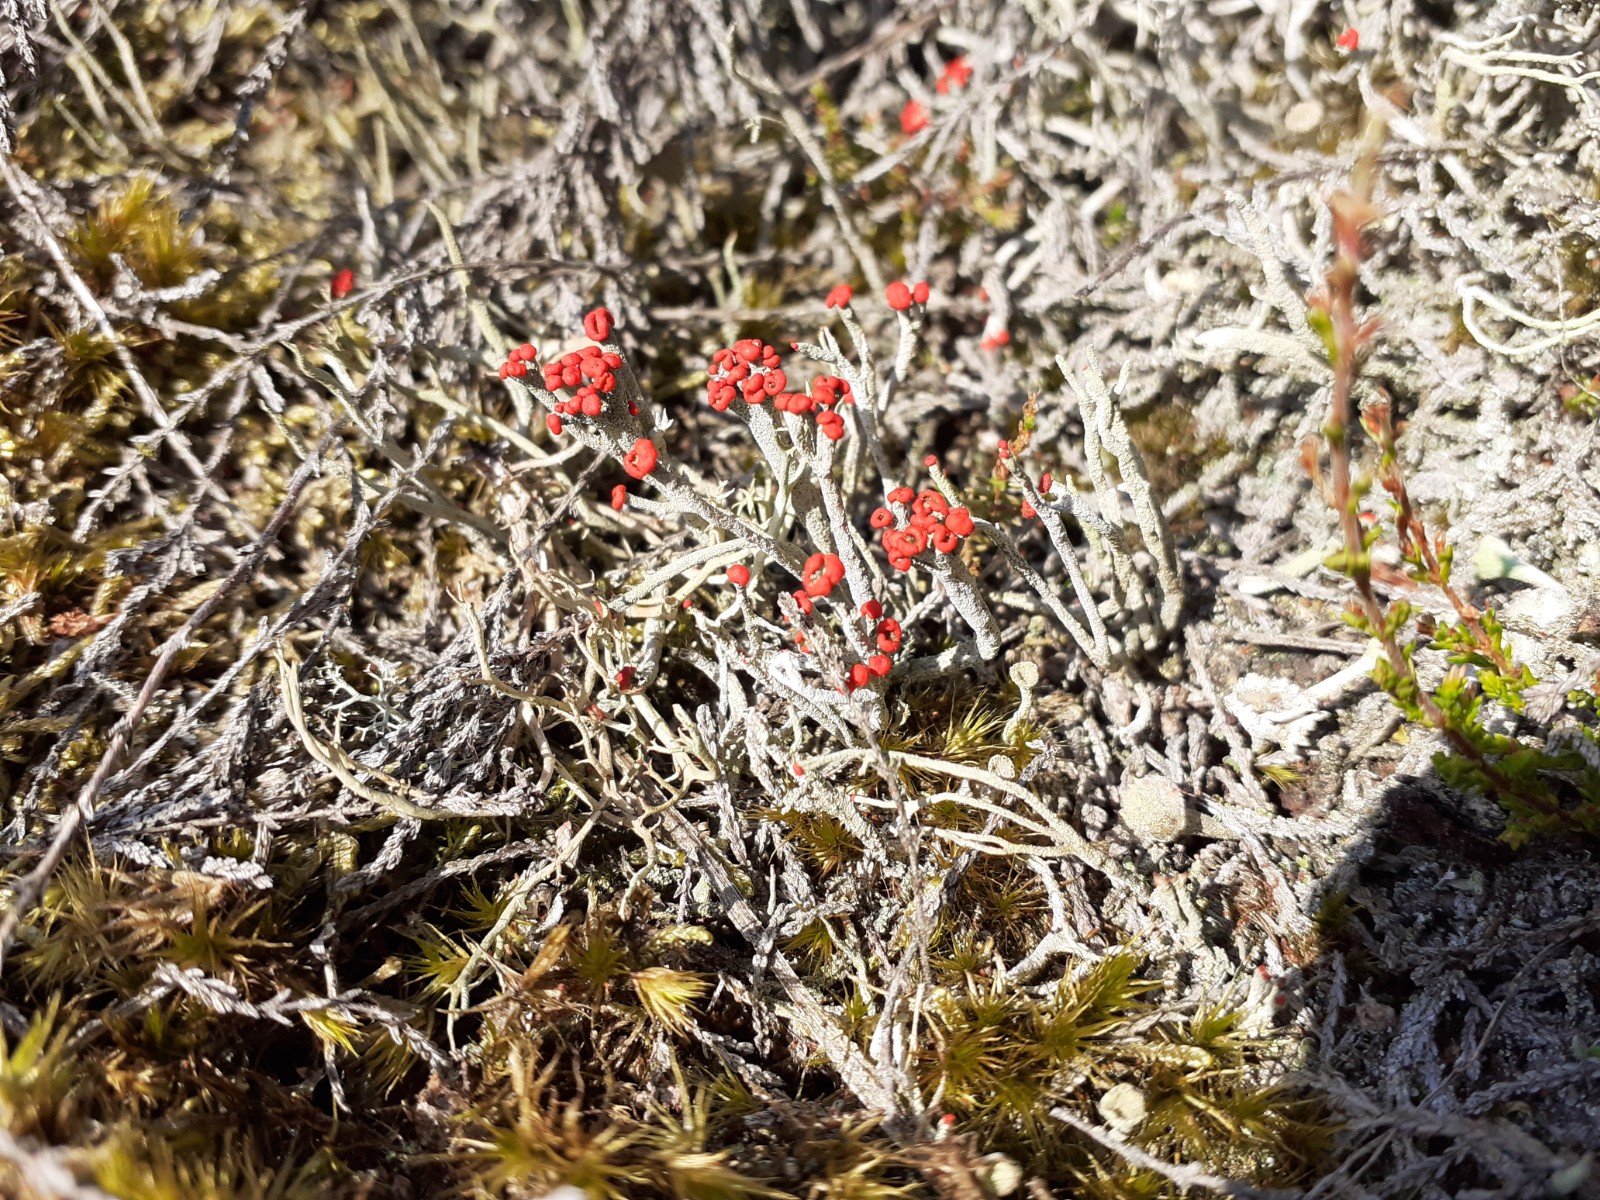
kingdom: Fungi
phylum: Ascomycota
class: Lecanoromycetes
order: Lecanorales
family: Cladoniaceae
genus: Cladonia
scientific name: Cladonia floerkeana
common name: lakrød bægerlav
